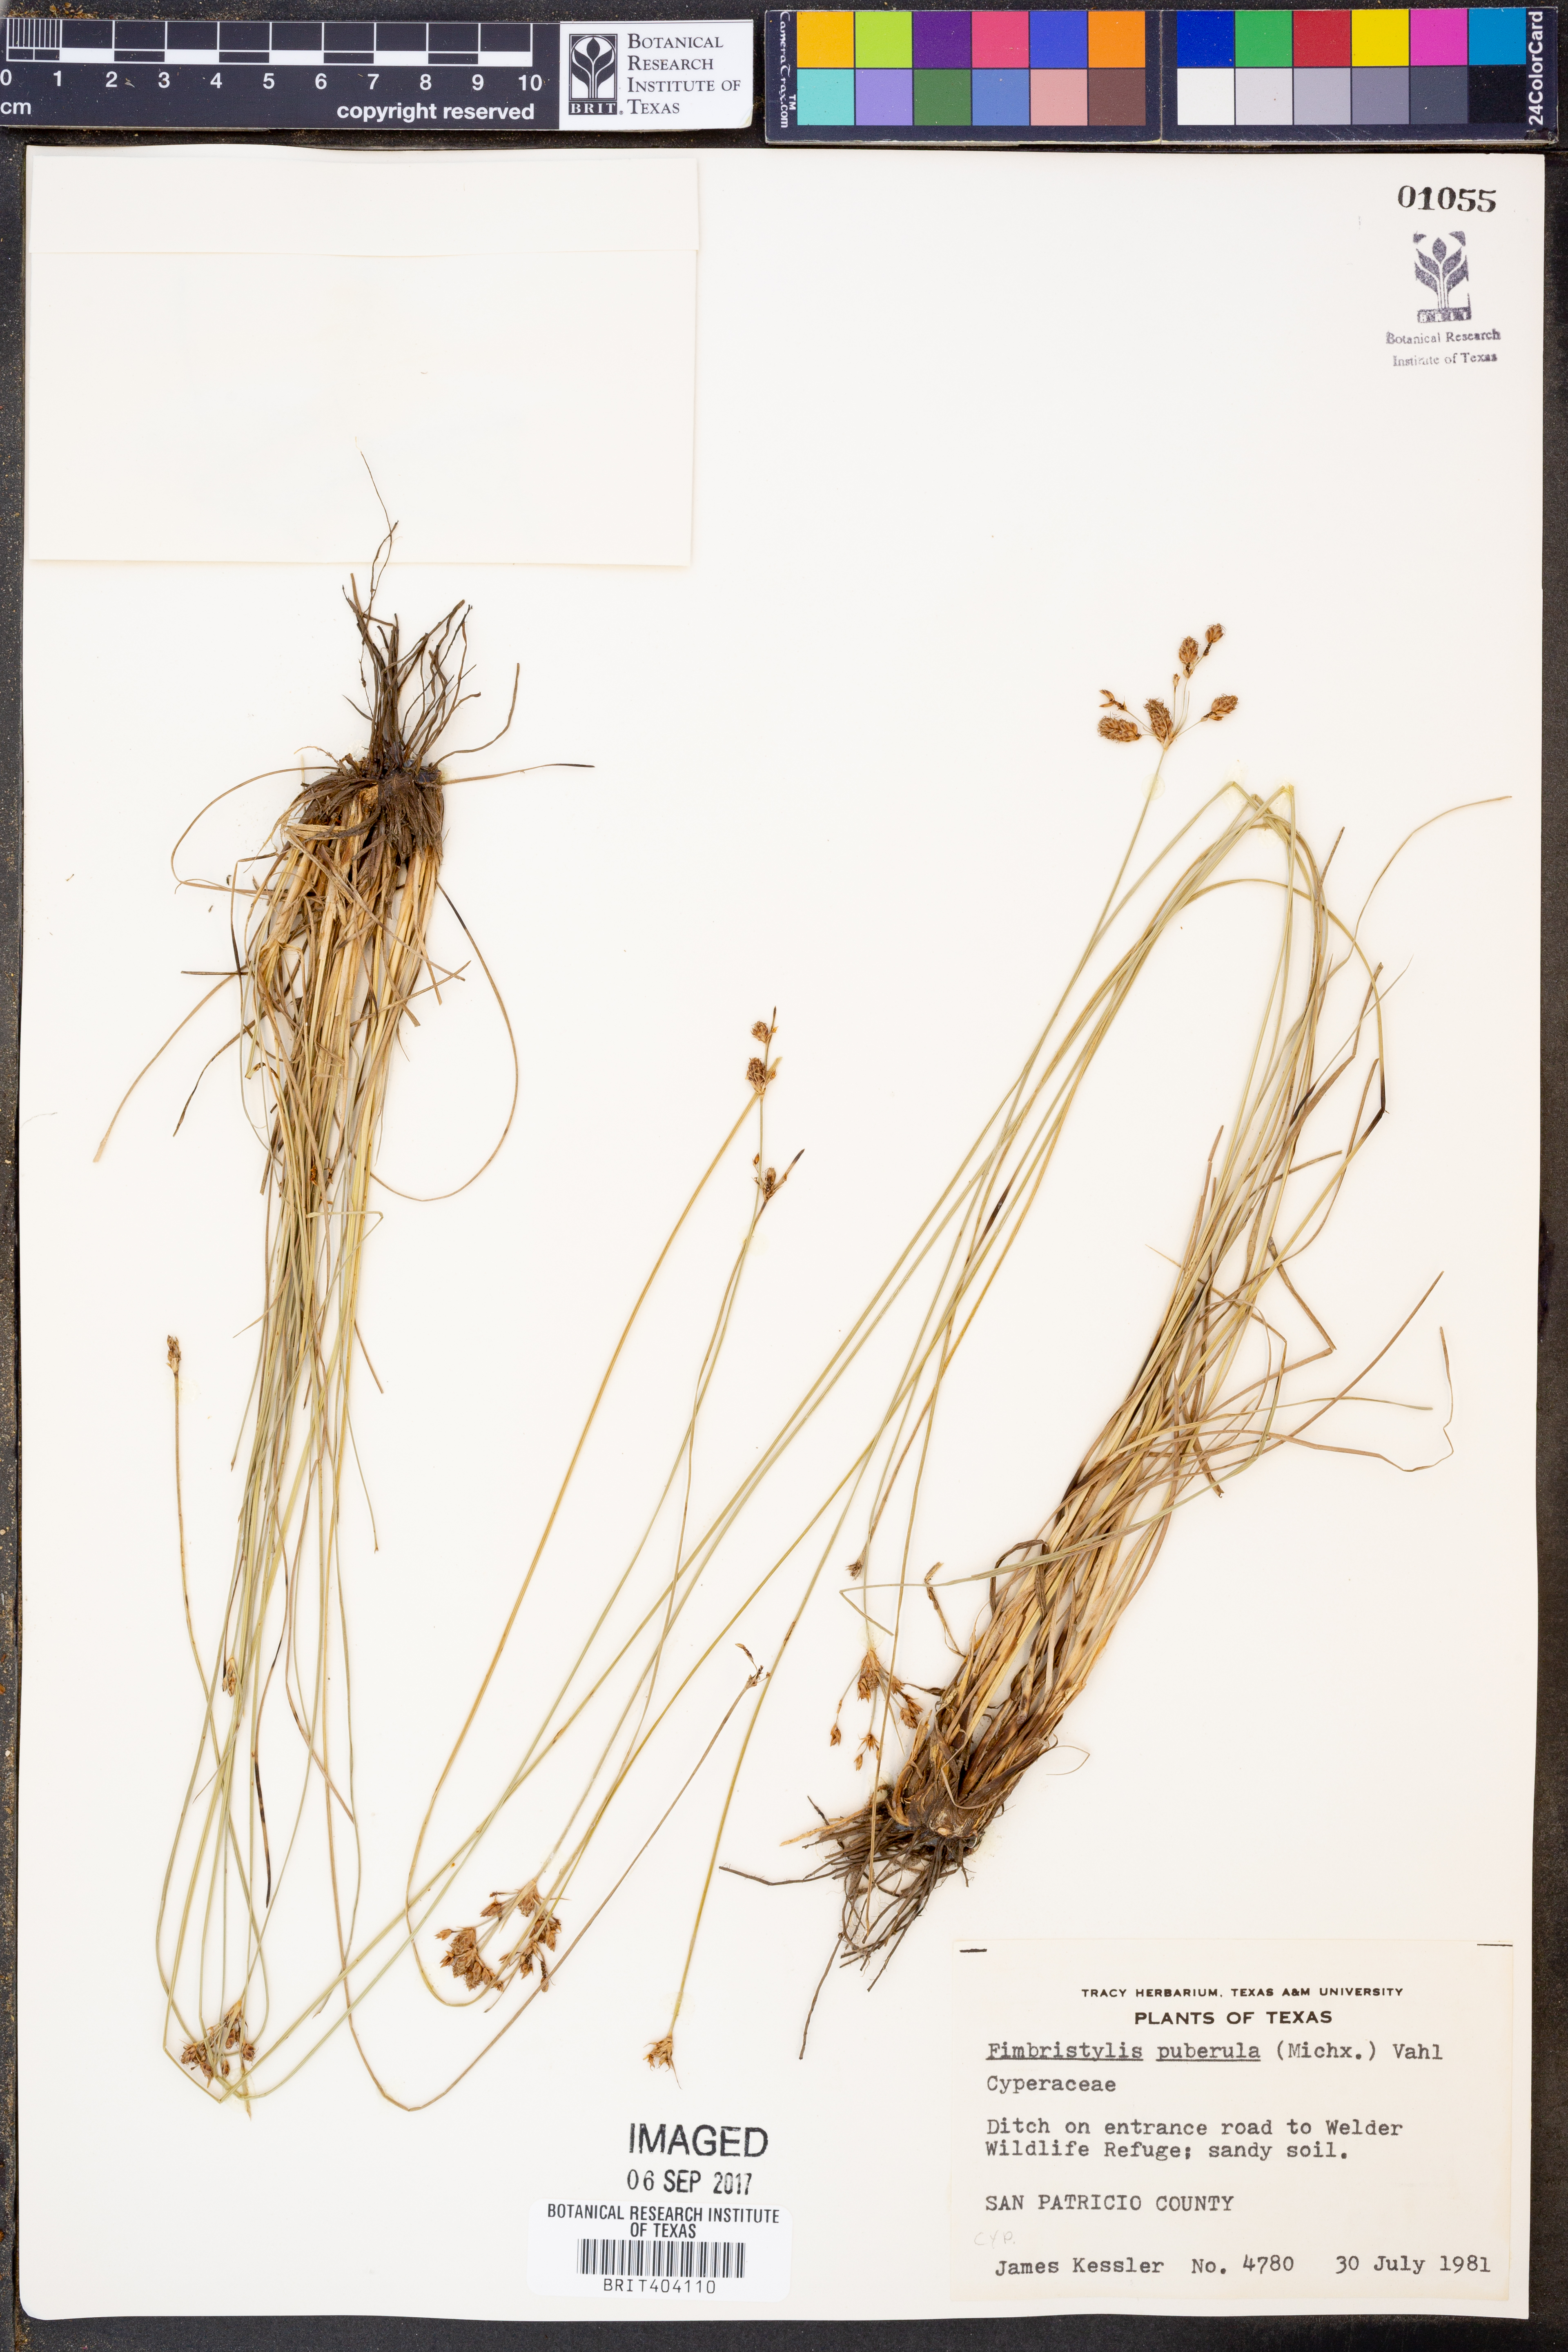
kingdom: Plantae
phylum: Tracheophyta
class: Liliopsida
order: Poales
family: Cyperaceae
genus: Fimbristylis
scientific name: Fimbristylis autumnalis
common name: Slender fimbristylis
